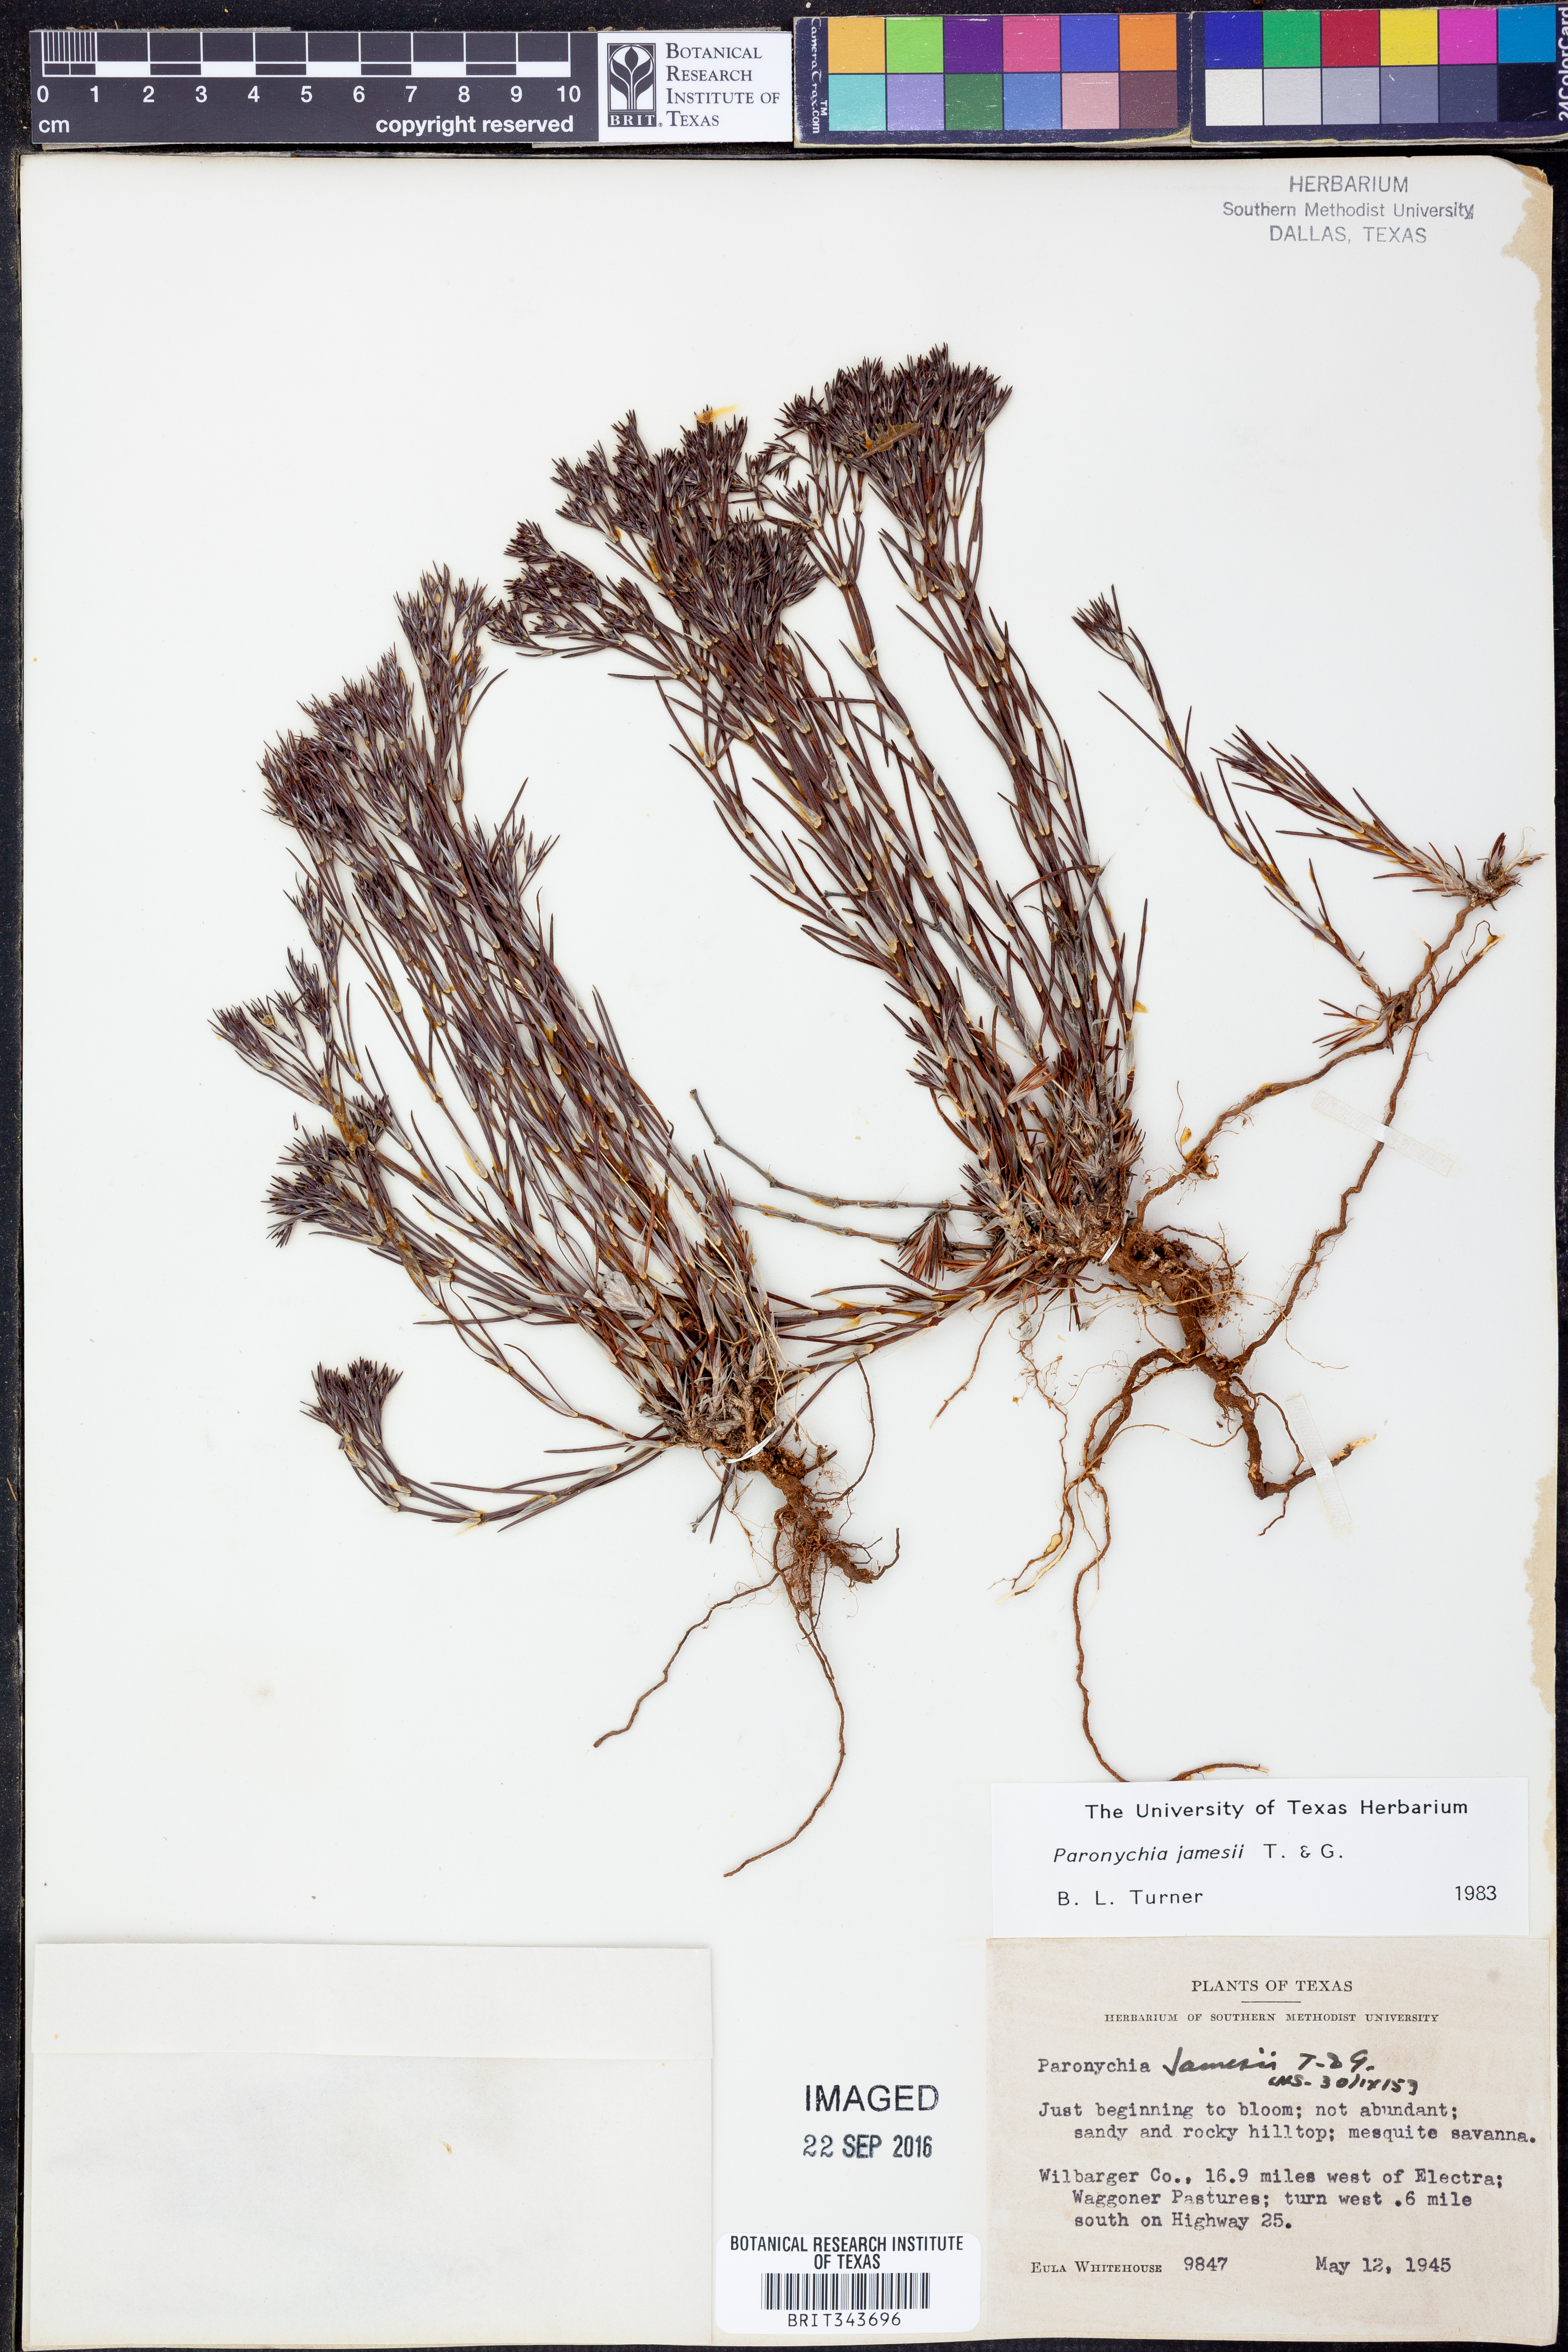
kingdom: Plantae
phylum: Tracheophyta
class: Magnoliopsida
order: Caryophyllales
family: Caryophyllaceae
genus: Paronychia
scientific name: Paronychia jamesii
